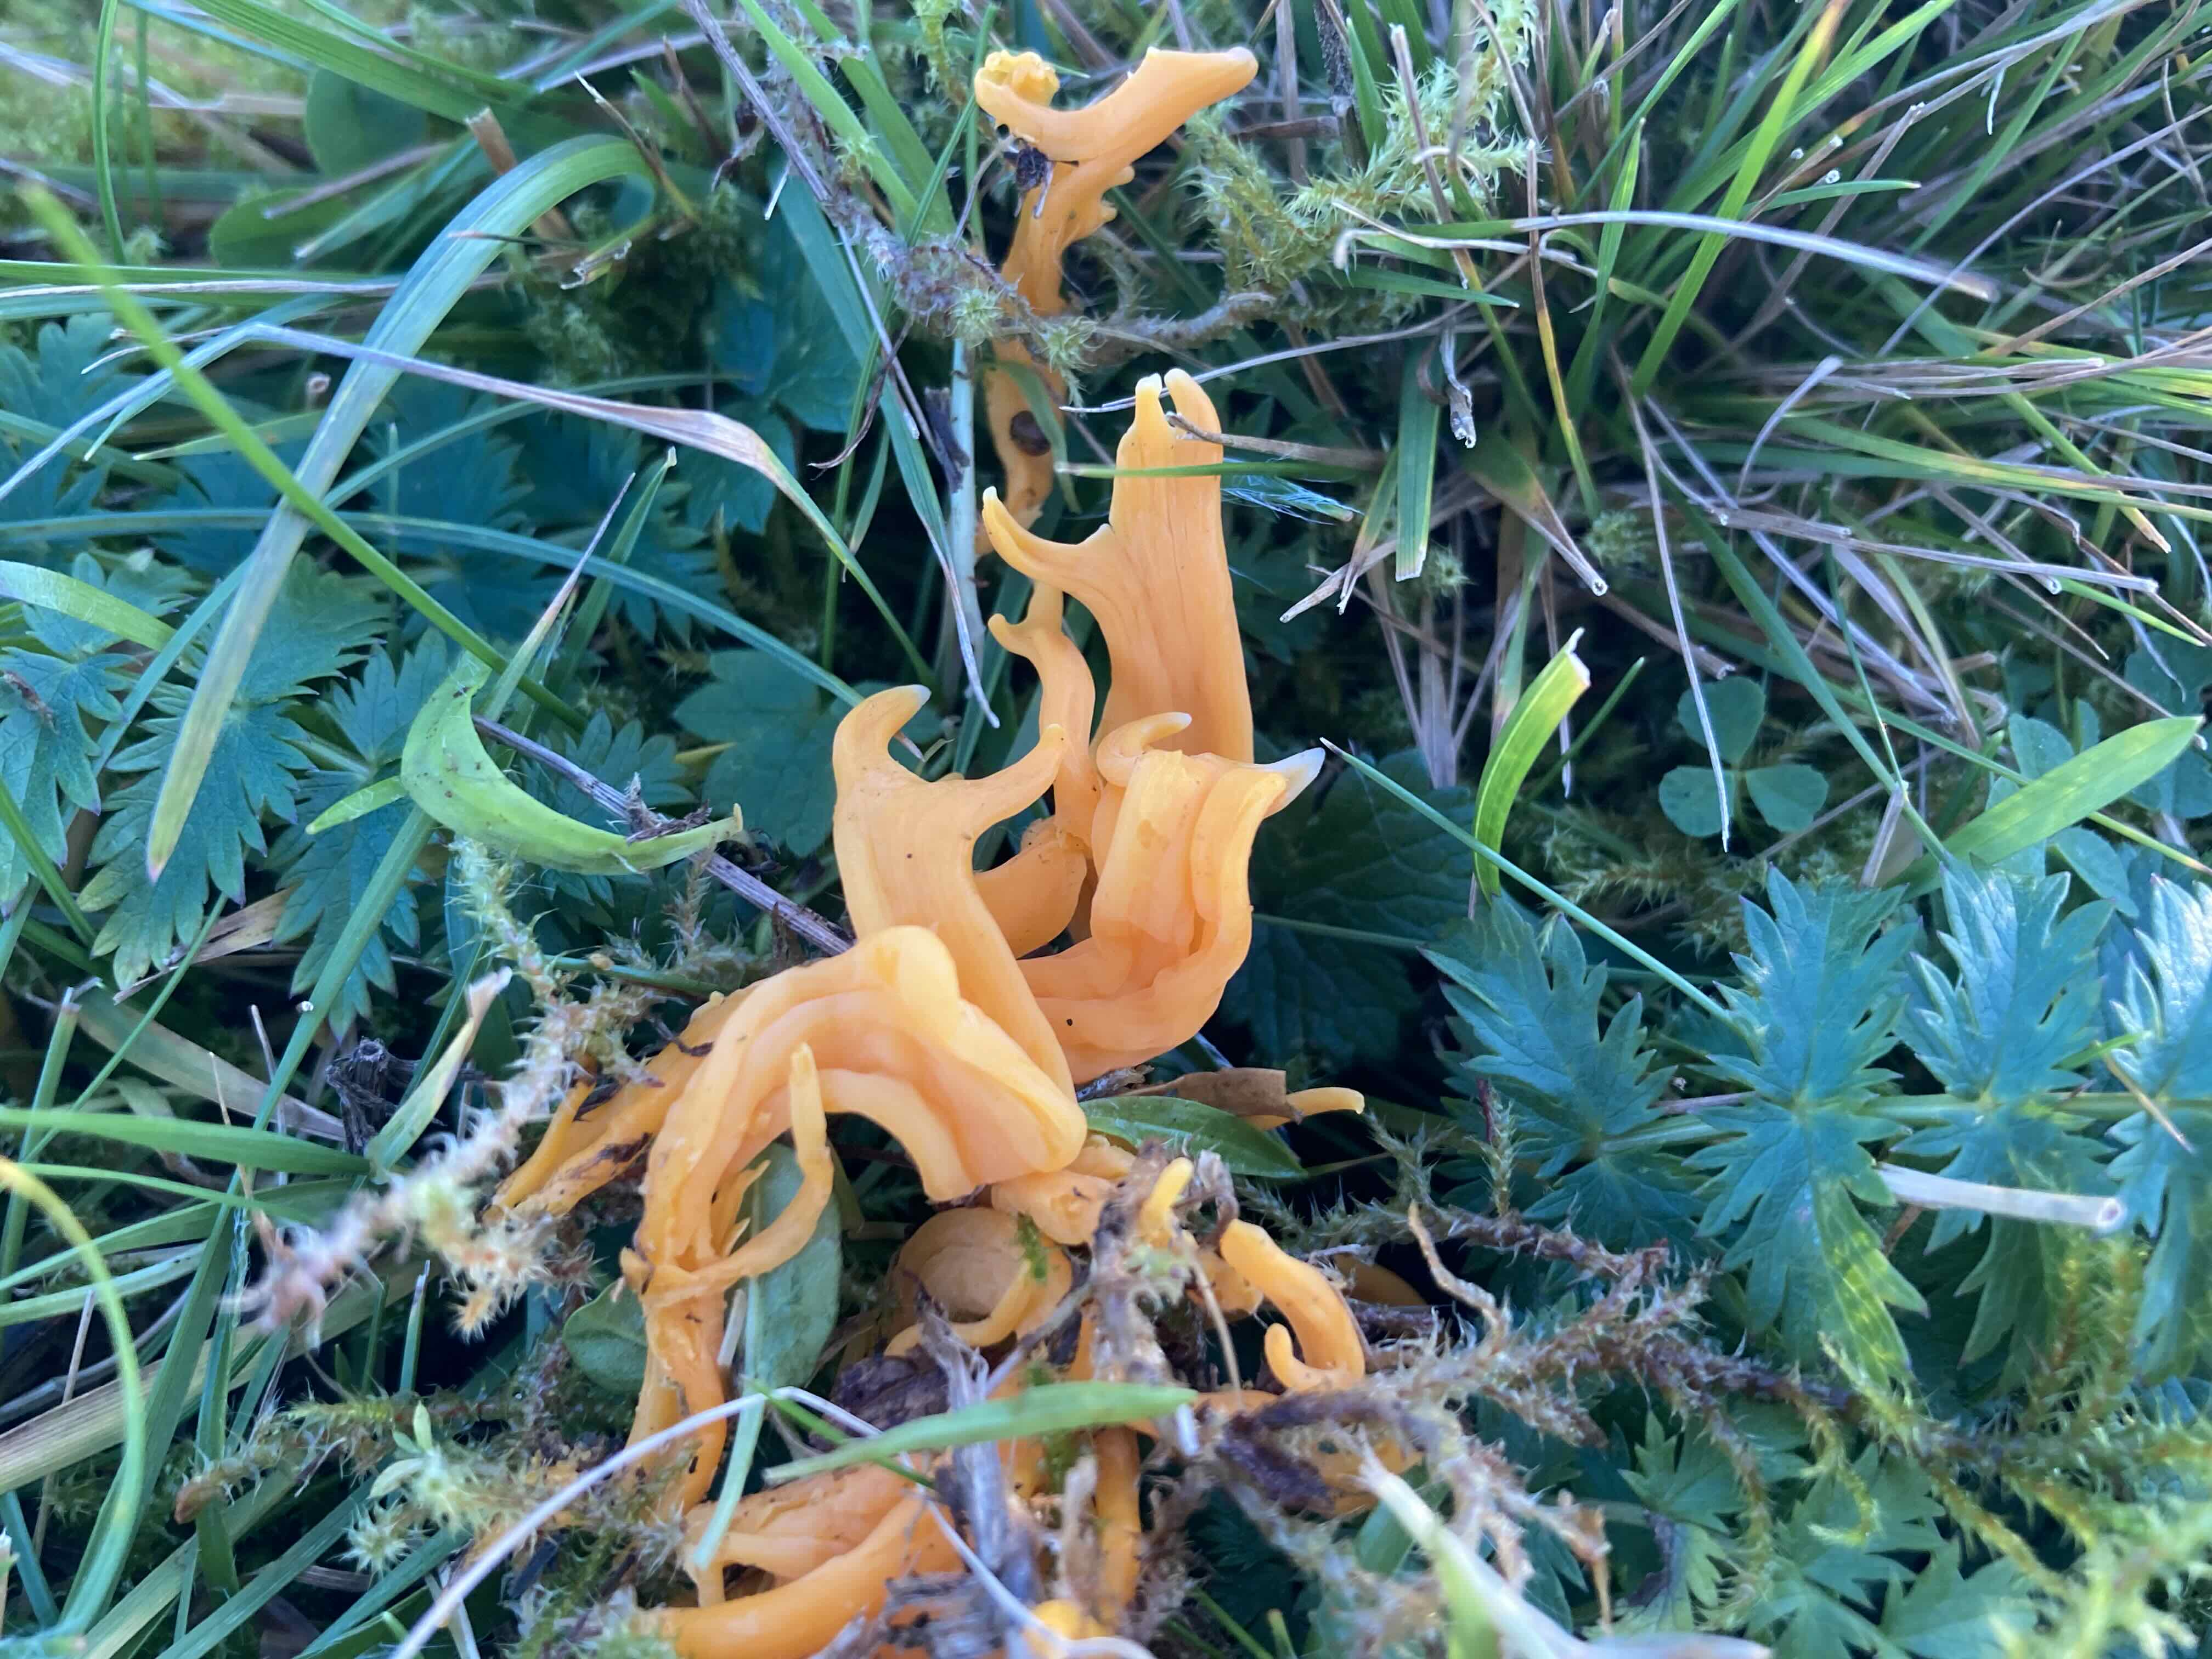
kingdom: Fungi
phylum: Basidiomycota
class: Agaricomycetes
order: Agaricales
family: Clavariaceae
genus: Clavulinopsis
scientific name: Clavulinopsis luteoalba
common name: abrikos-køllesvamp
